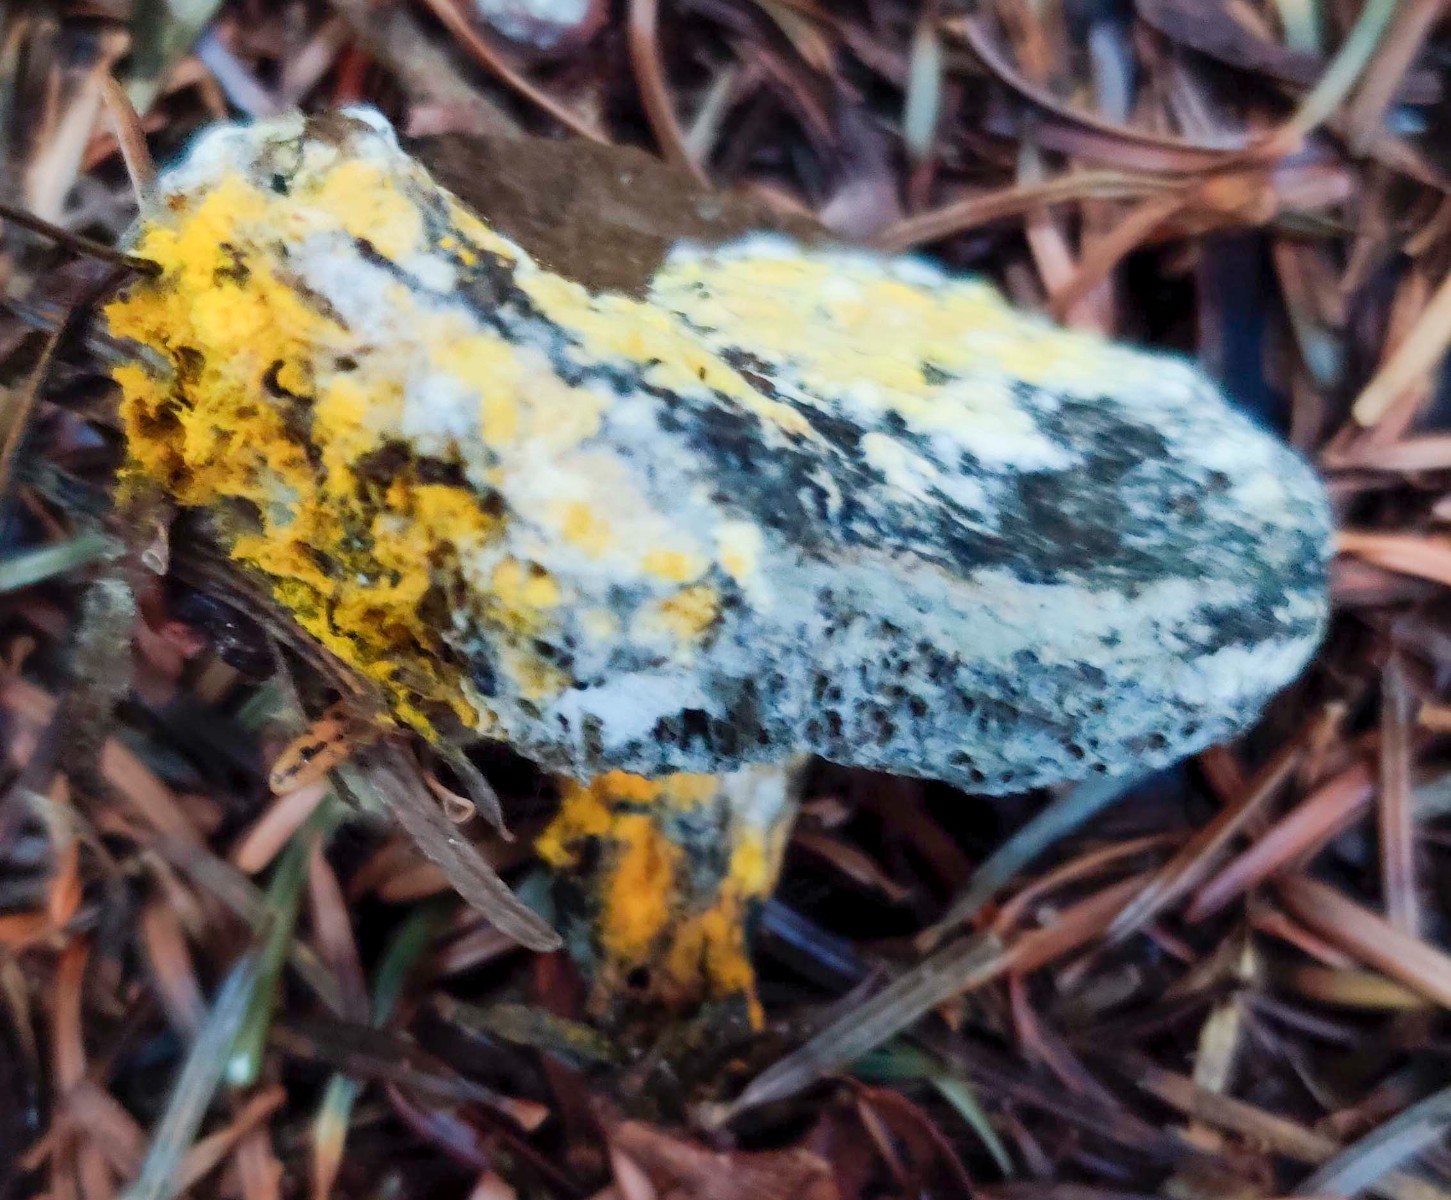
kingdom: Fungi
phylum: Ascomycota
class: Sordariomycetes
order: Hypocreales
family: Hypocreaceae
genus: Hypomyces
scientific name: Hypomyces microspermus
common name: dværgrørhat-snylteskorpe
